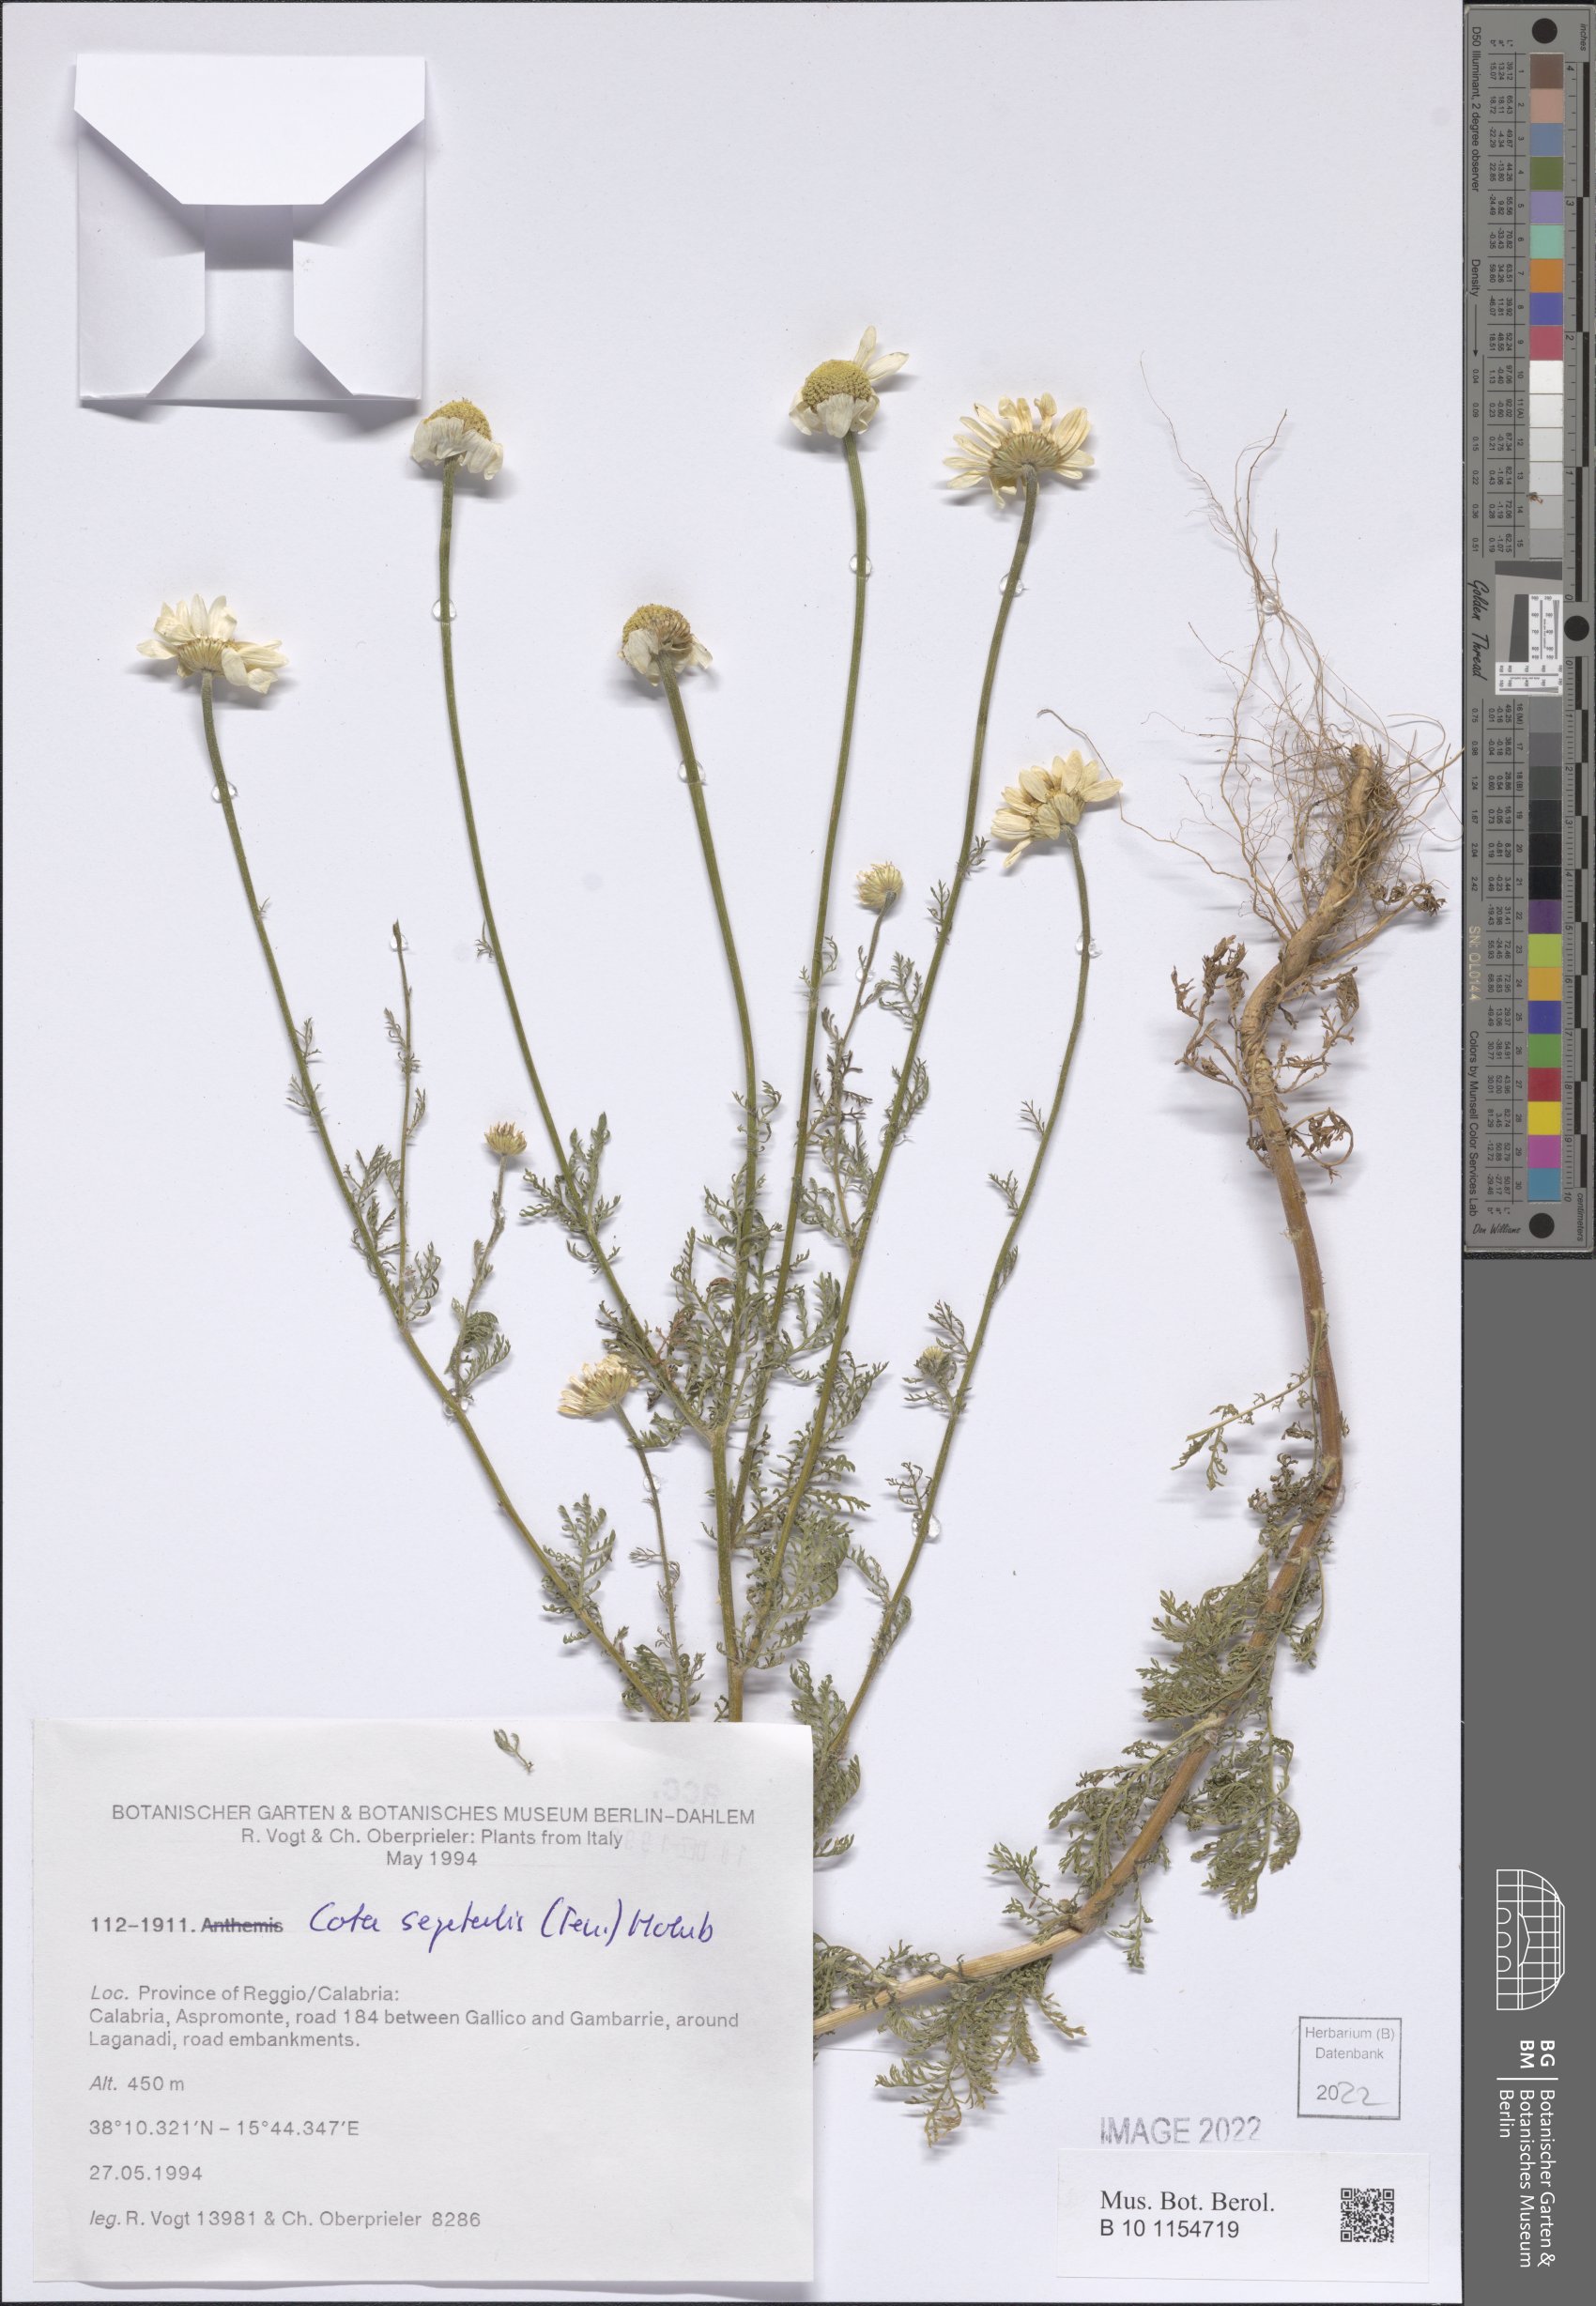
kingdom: Plantae
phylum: Tracheophyta
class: Magnoliopsida
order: Asterales
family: Asteraceae
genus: Cota
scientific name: Cota segetalis
